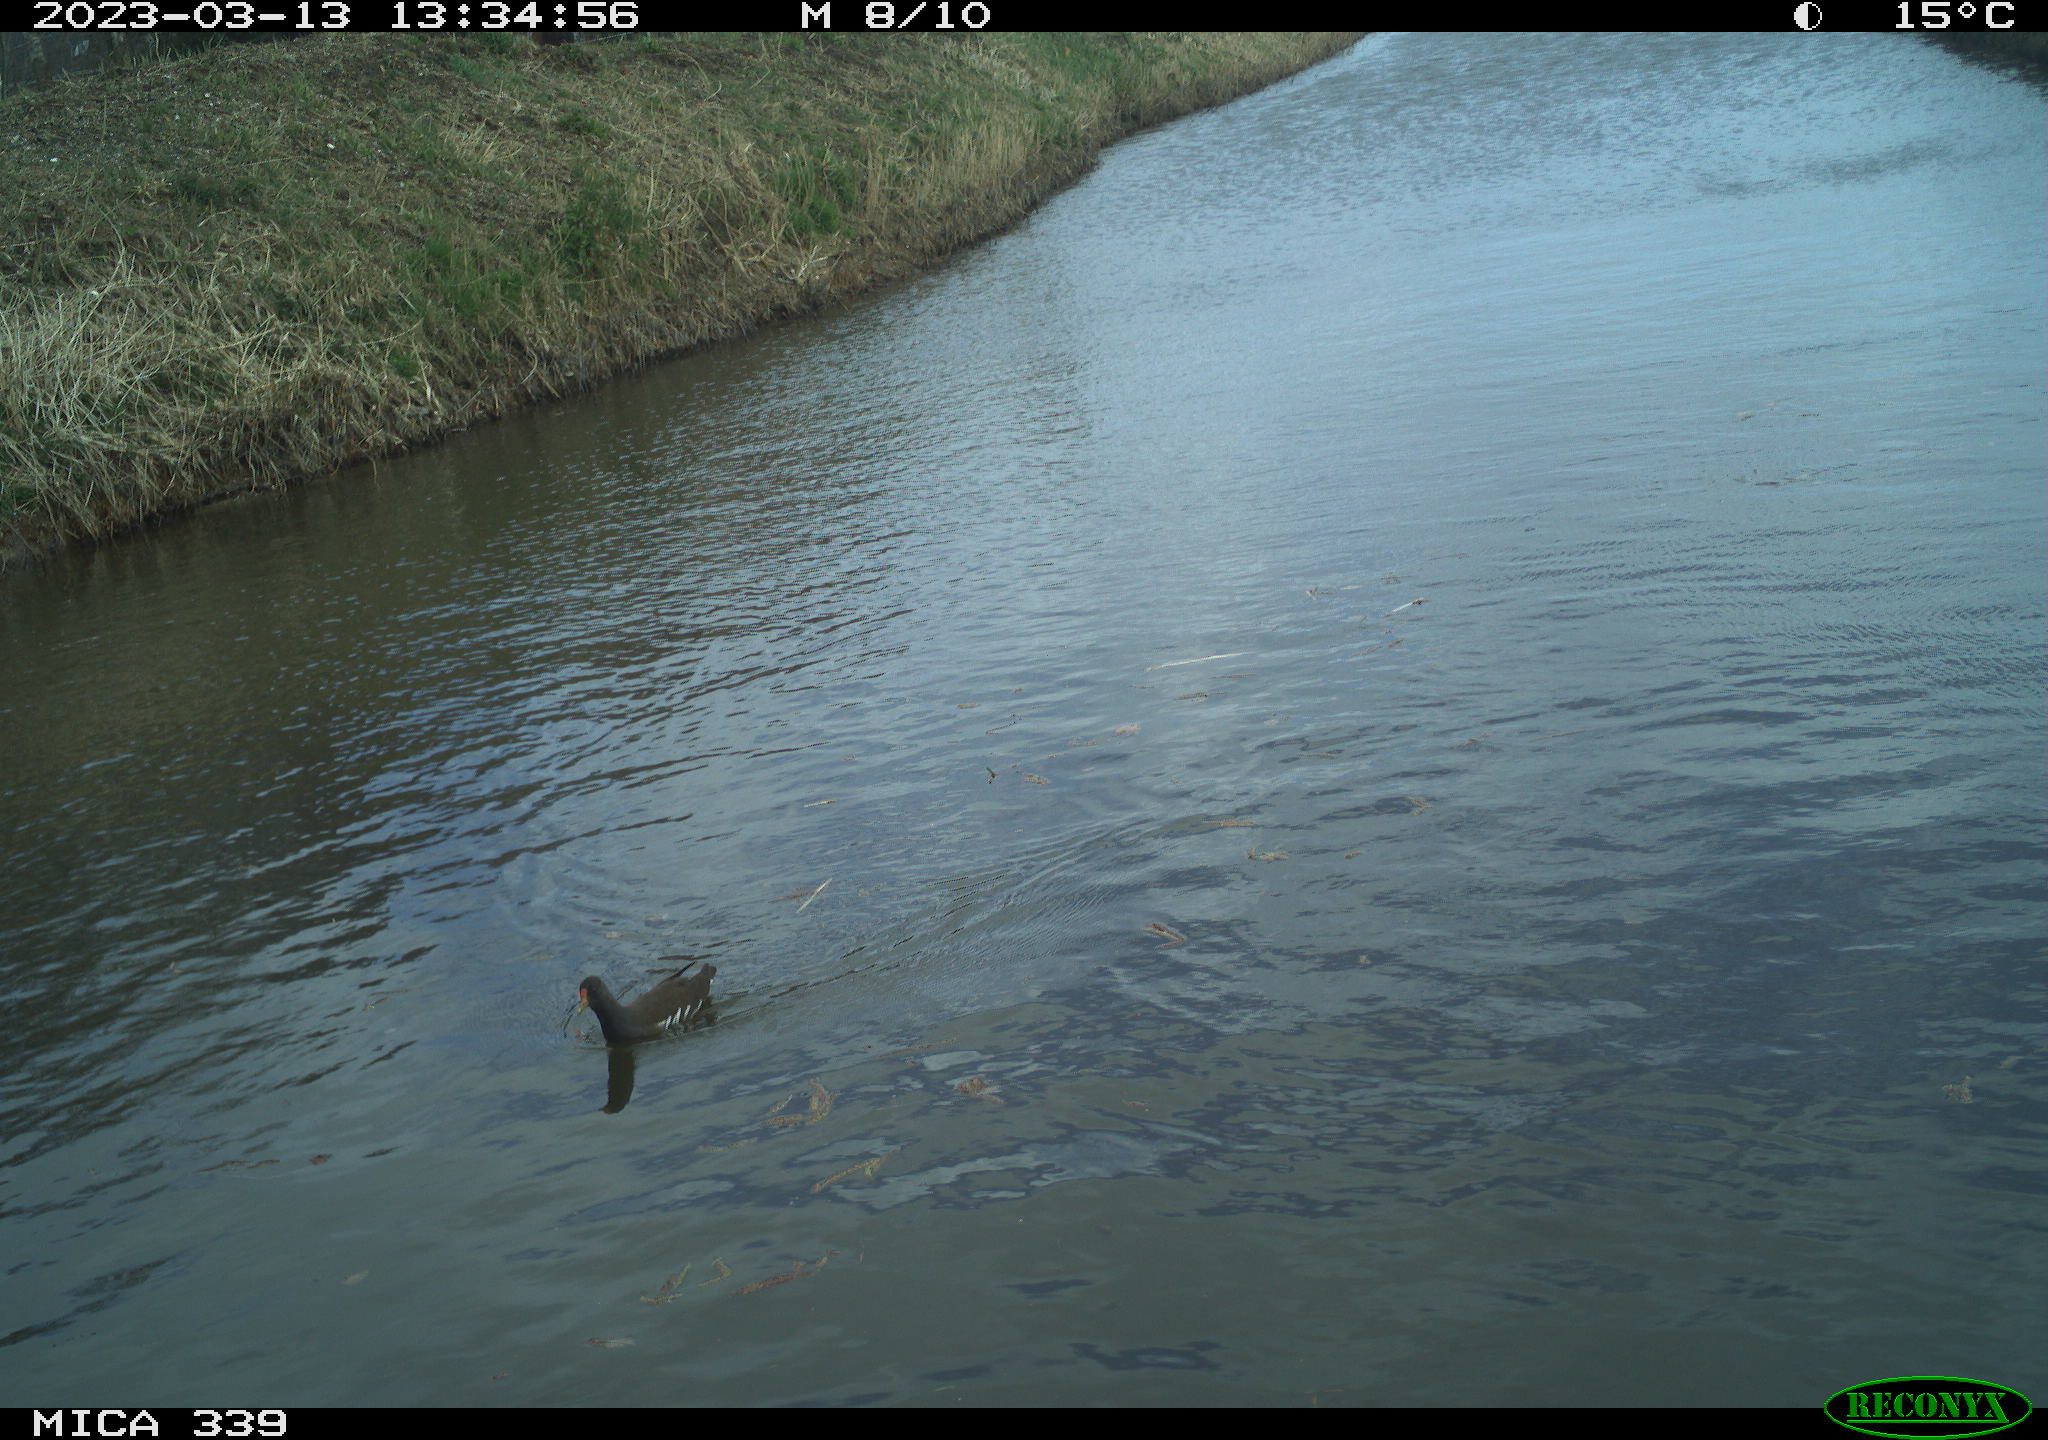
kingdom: Animalia
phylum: Chordata
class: Aves
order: Gruiformes
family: Rallidae
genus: Gallinula
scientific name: Gallinula chloropus
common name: Common moorhen
